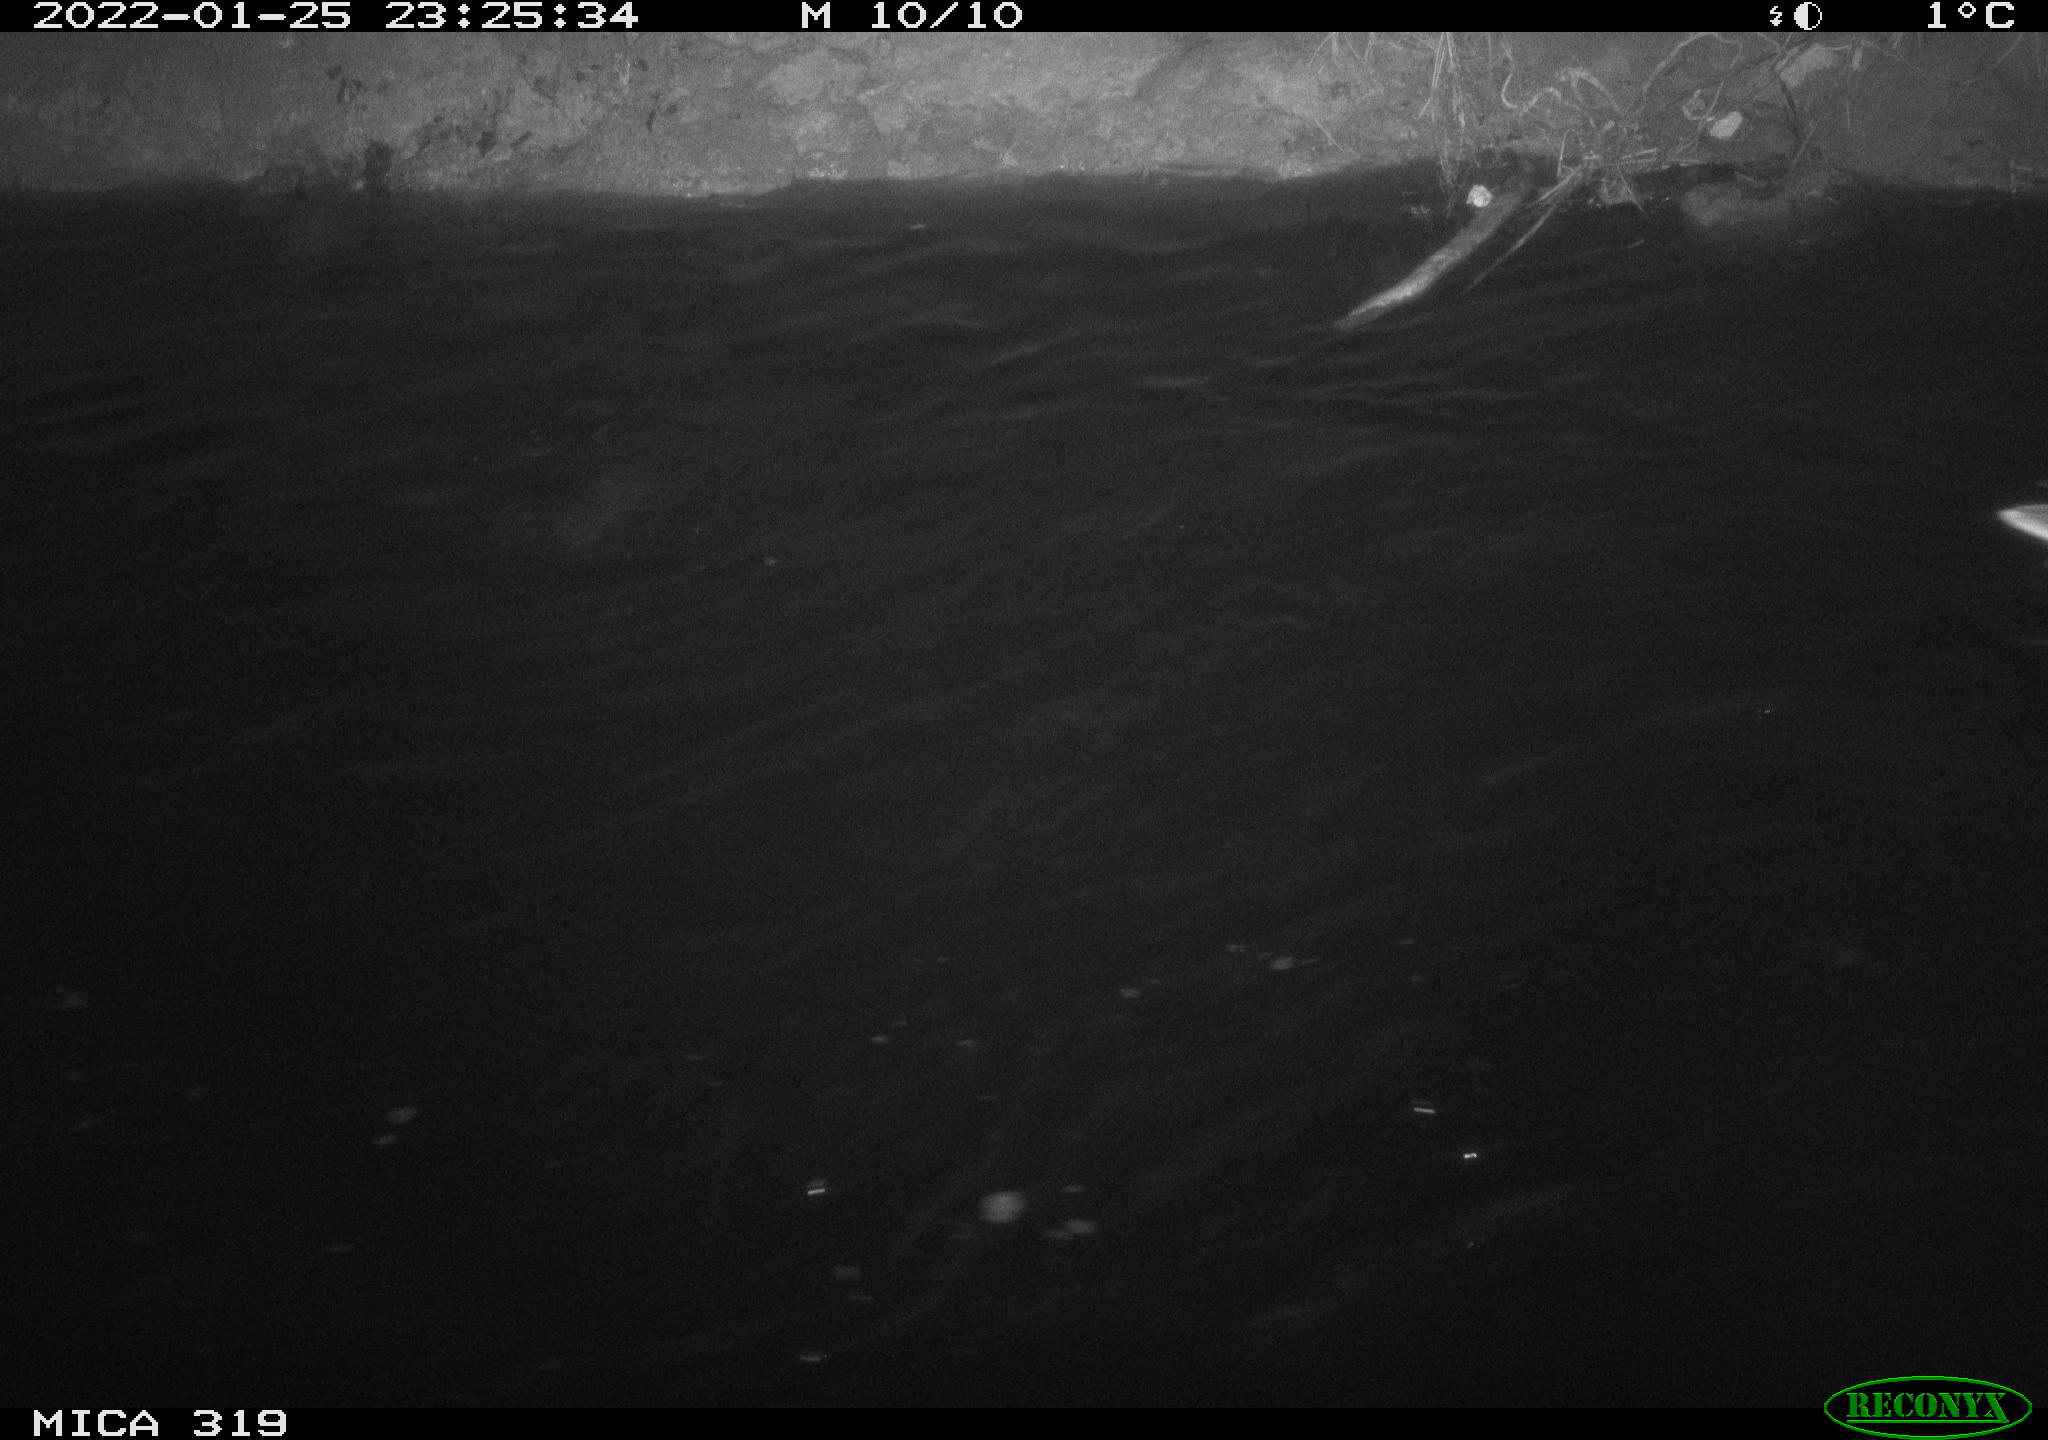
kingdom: Animalia
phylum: Chordata
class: Aves
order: Anseriformes
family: Anatidae
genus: Anas
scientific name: Anas platyrhynchos
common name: Mallard
